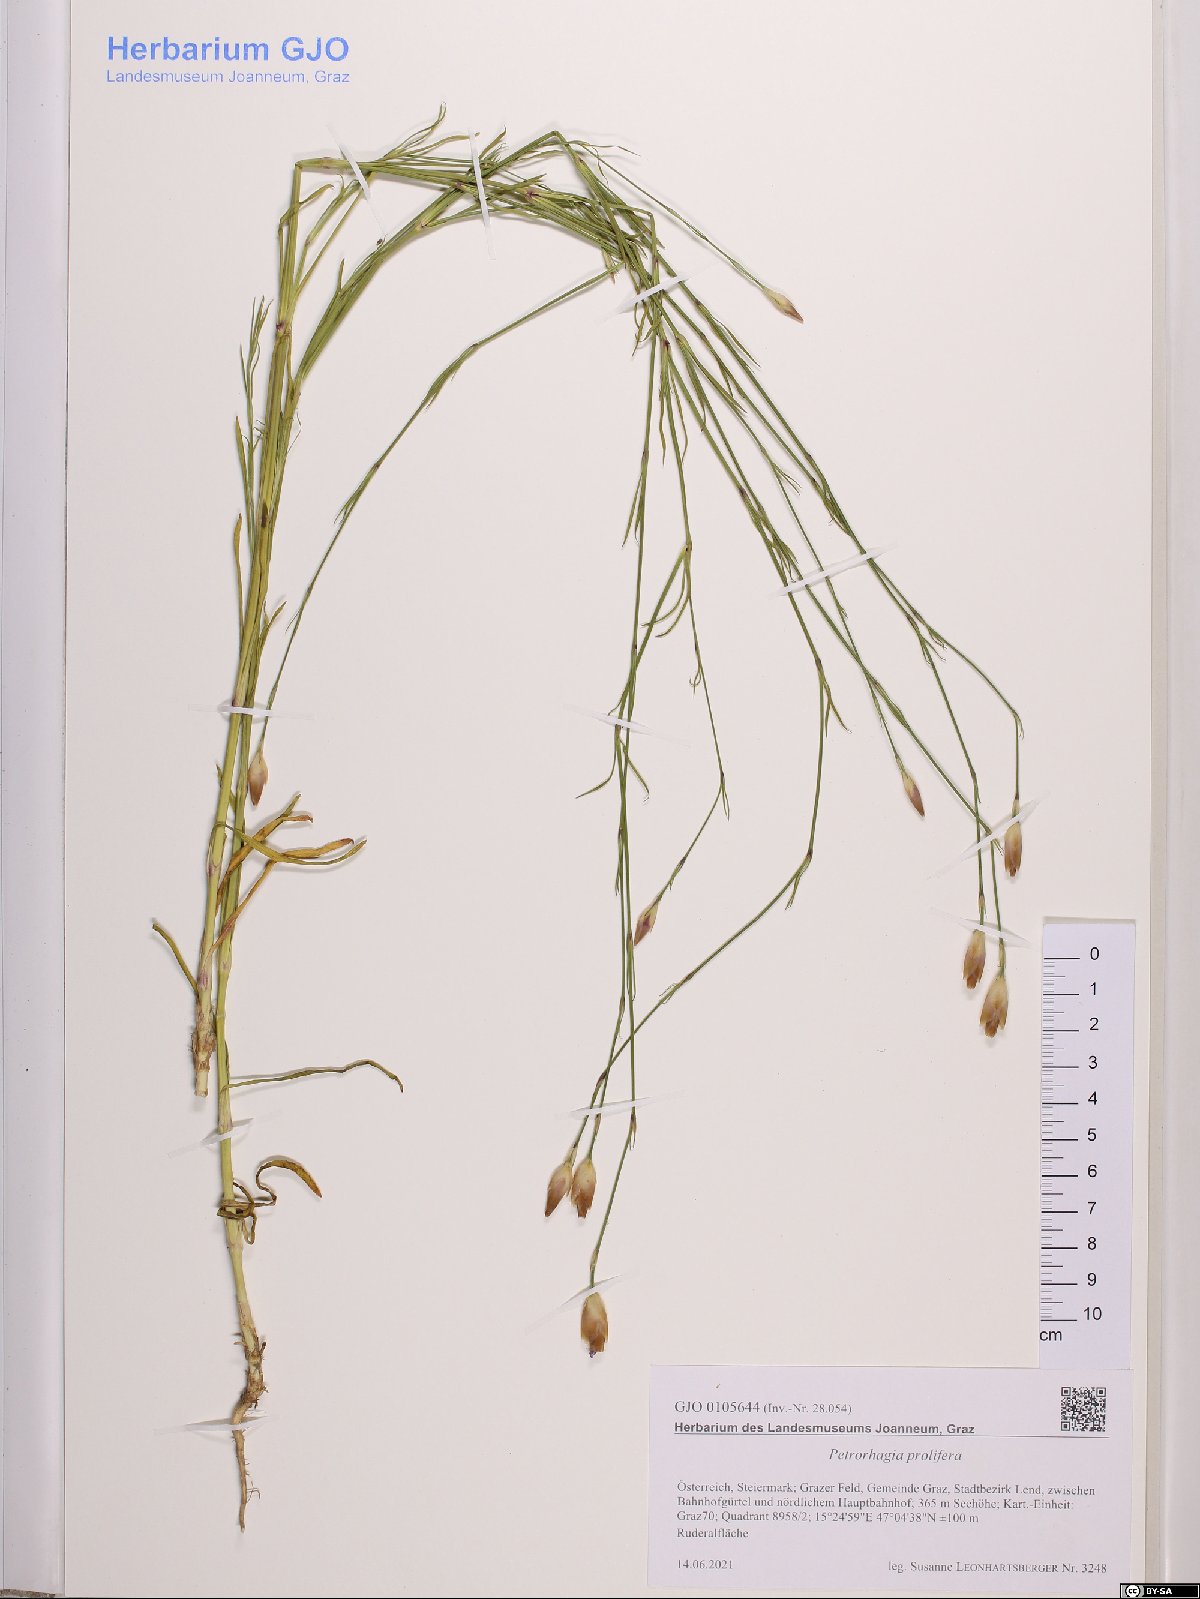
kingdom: Plantae
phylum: Tracheophyta
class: Magnoliopsida
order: Caryophyllales
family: Caryophyllaceae
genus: Petrorhagia
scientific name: Petrorhagia prolifera
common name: Proliferous pink
